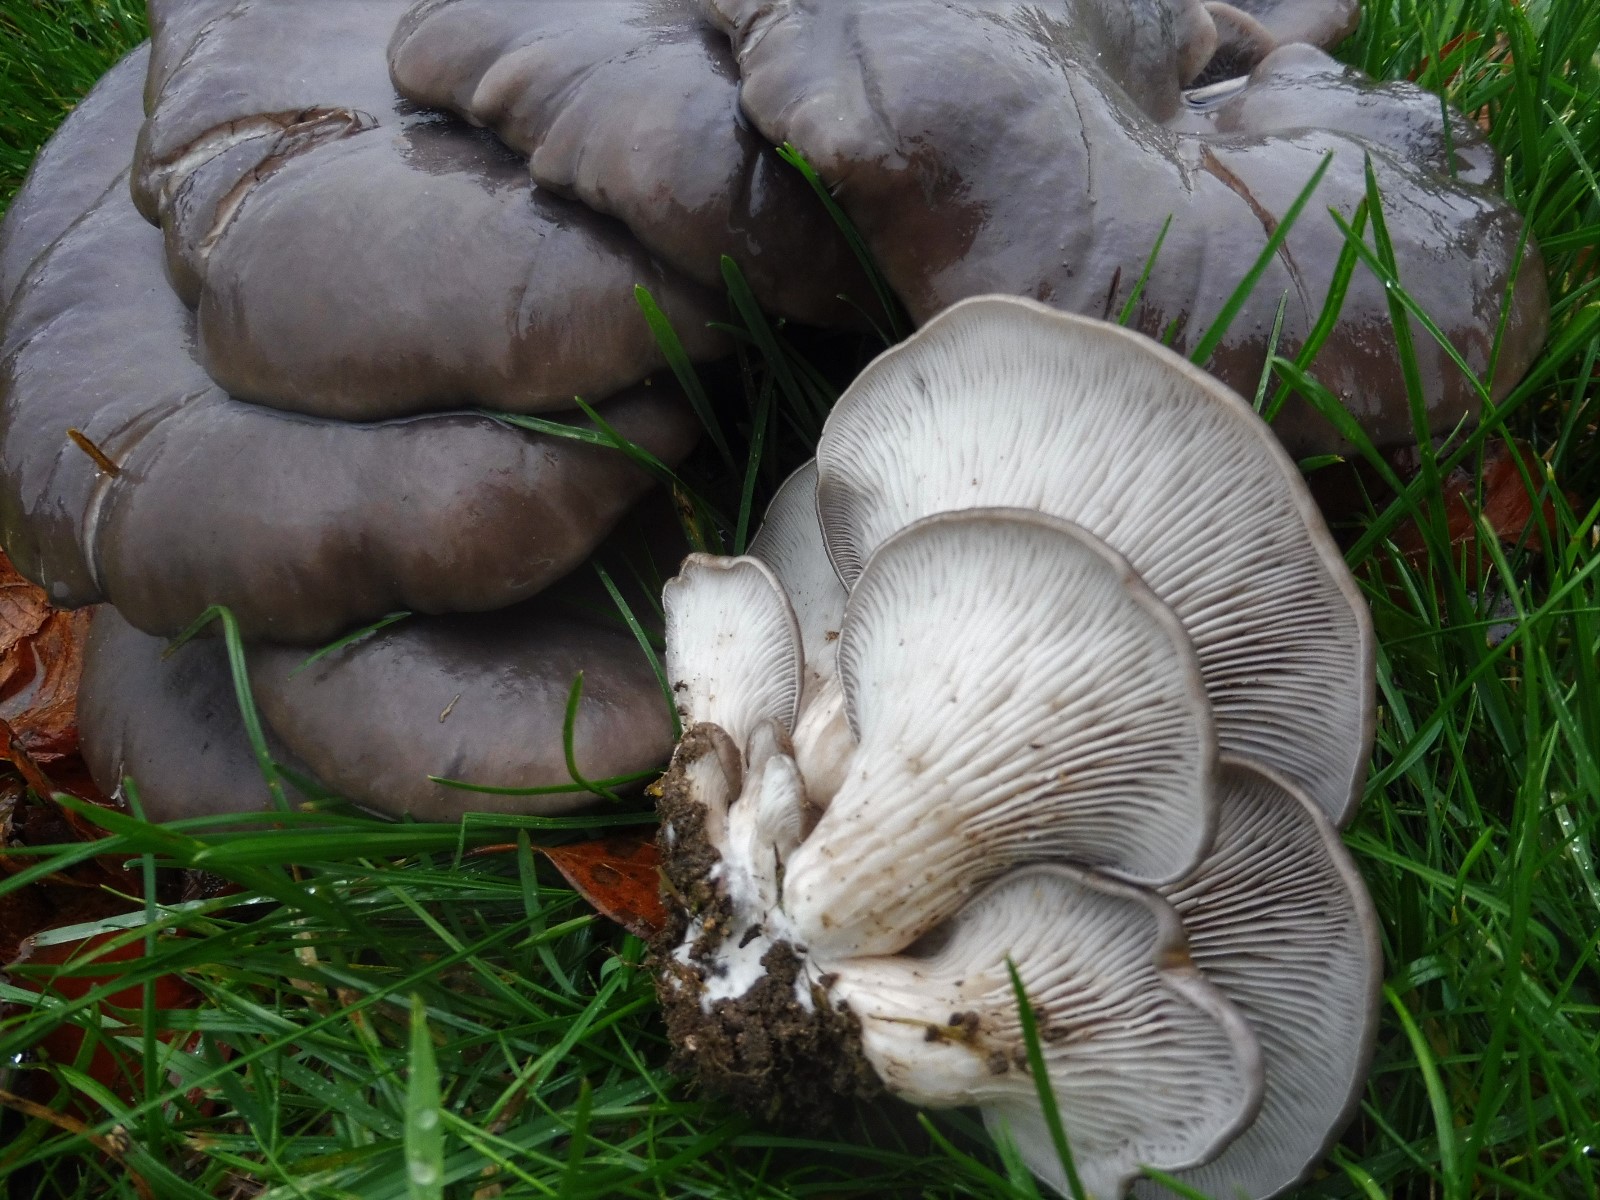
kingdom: Fungi
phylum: Basidiomycota
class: Agaricomycetes
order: Agaricales
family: Pleurotaceae
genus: Pleurotus
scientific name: Pleurotus ostreatus
